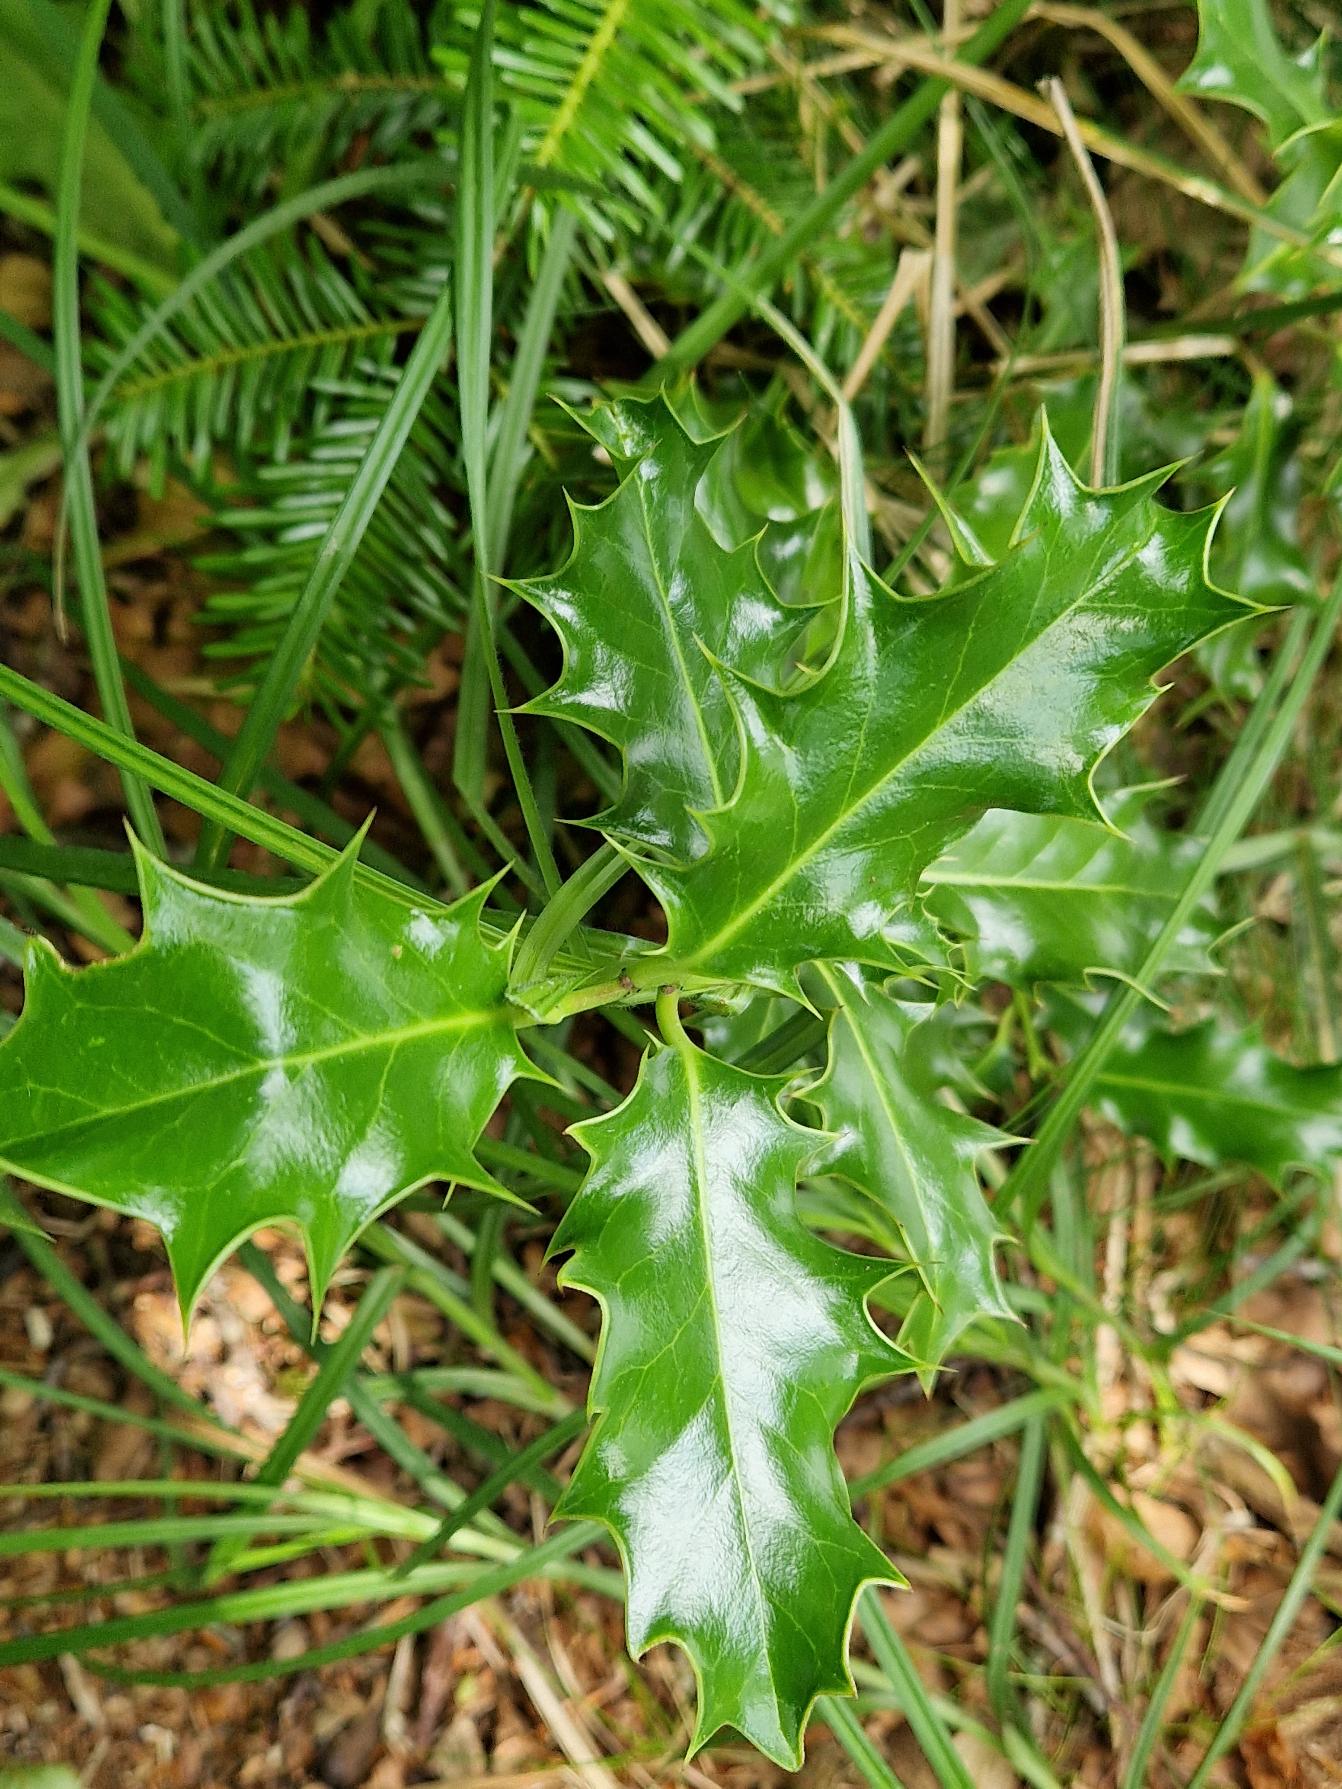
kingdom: Plantae
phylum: Tracheophyta
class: Magnoliopsida
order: Aquifoliales
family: Aquifoliaceae
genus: Ilex
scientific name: Ilex aquifolium
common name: Kristtorn
